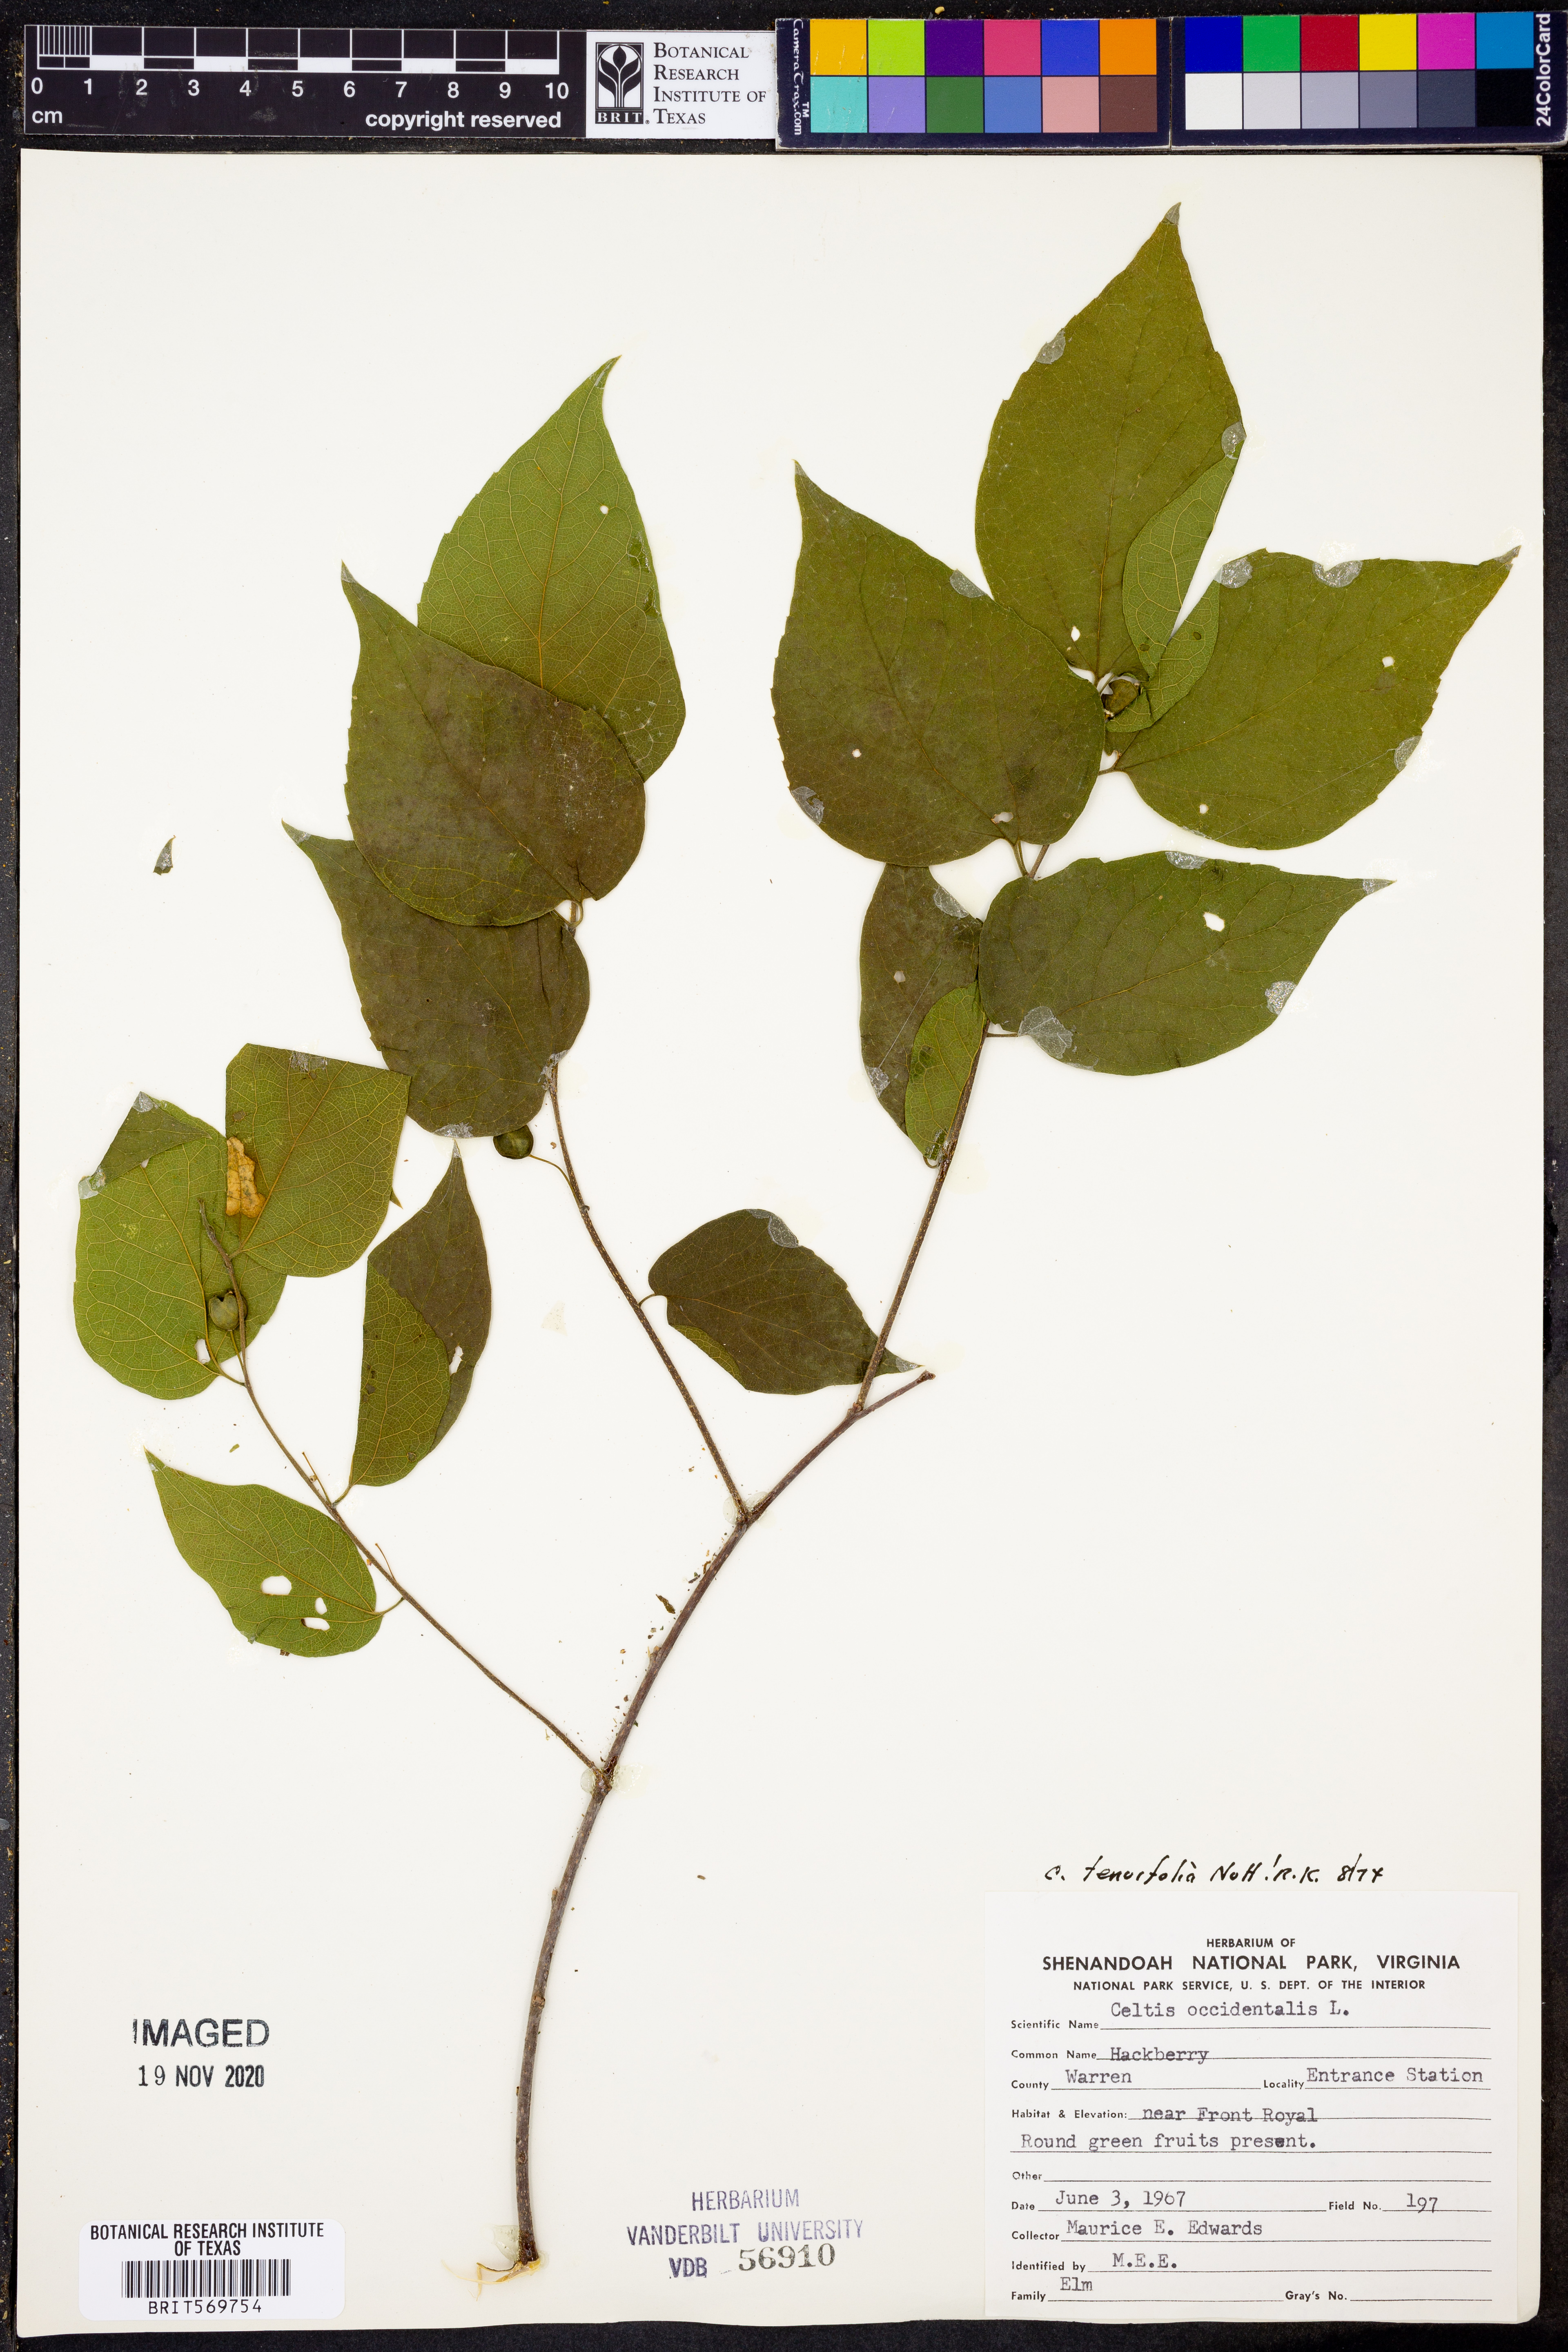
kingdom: Plantae
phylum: Tracheophyta
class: Magnoliopsida
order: Rosales
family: Cannabaceae
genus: Celtis
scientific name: Celtis tenuifolia
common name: Georgia hackberry
